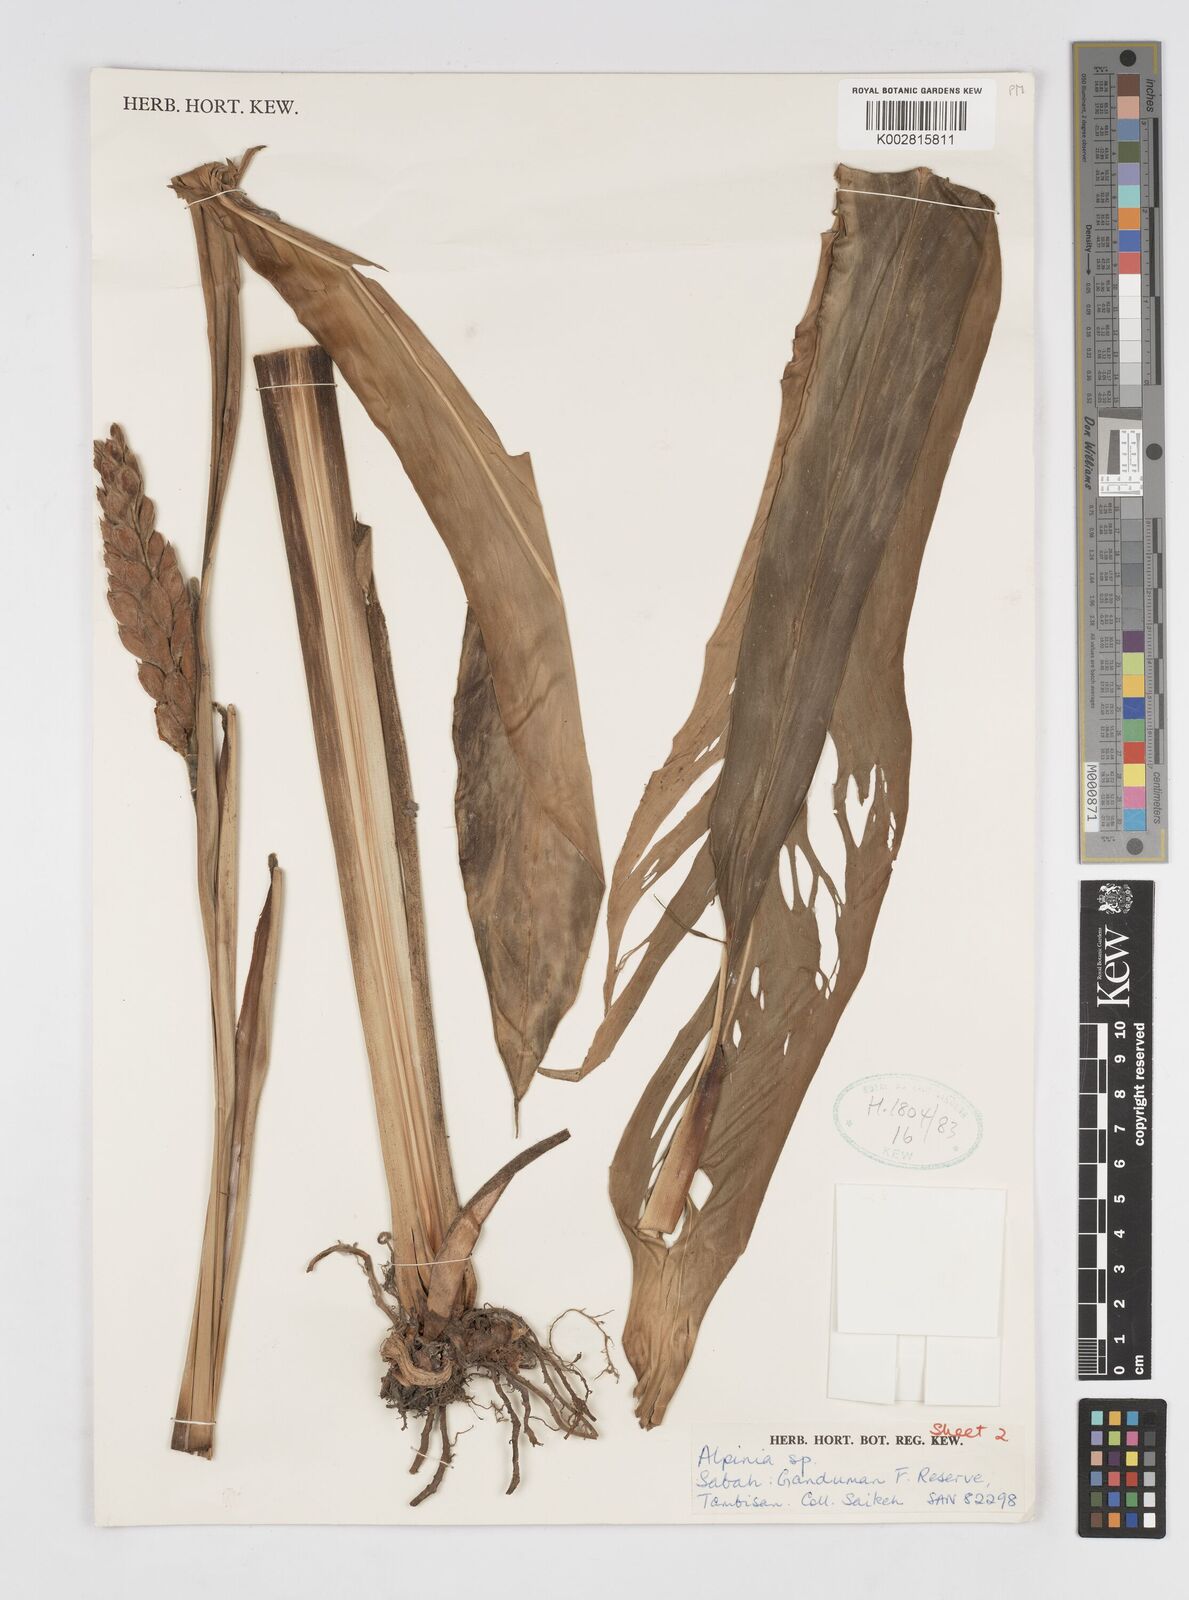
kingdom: Plantae
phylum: Tracheophyta
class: Liliopsida
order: Zingiberales
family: Zingiberaceae
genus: Alpinia
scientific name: Alpinia latilabris
